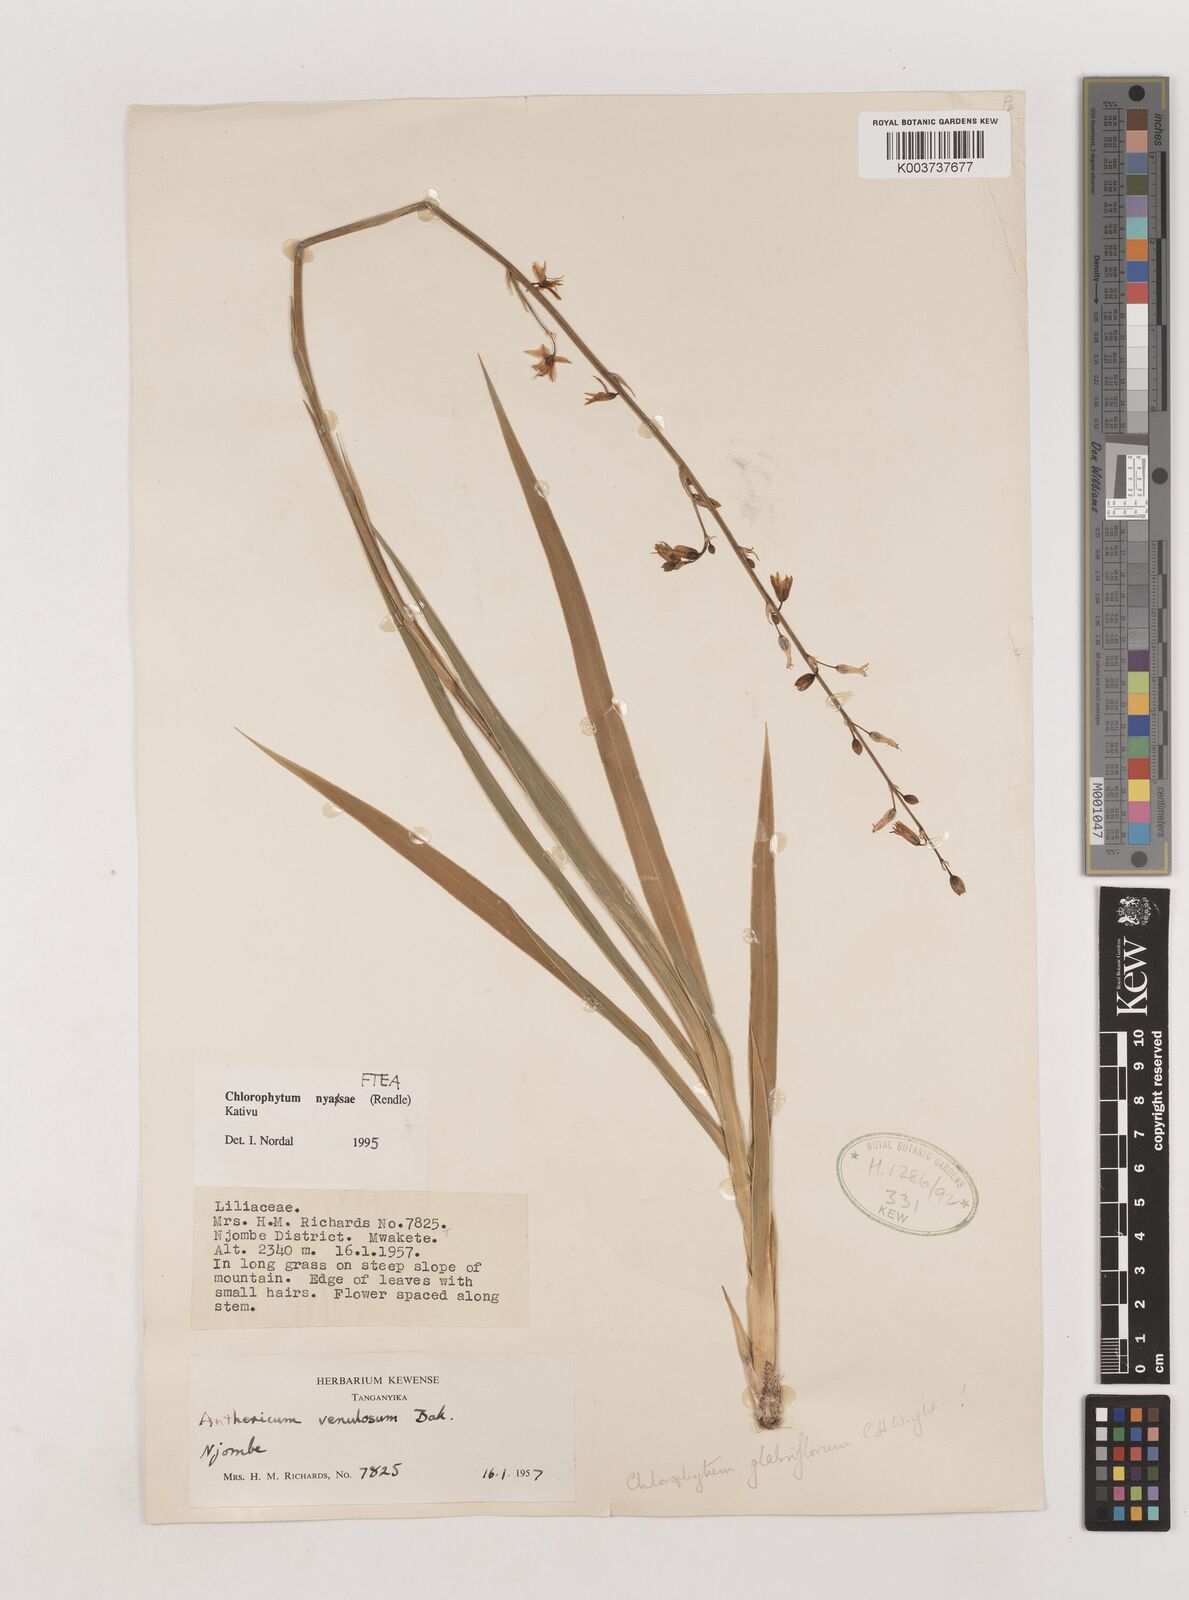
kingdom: Plantae
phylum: Tracheophyta
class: Liliopsida
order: Asparagales
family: Asparagaceae
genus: Chlorophytum
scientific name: Chlorophytum nyasae
